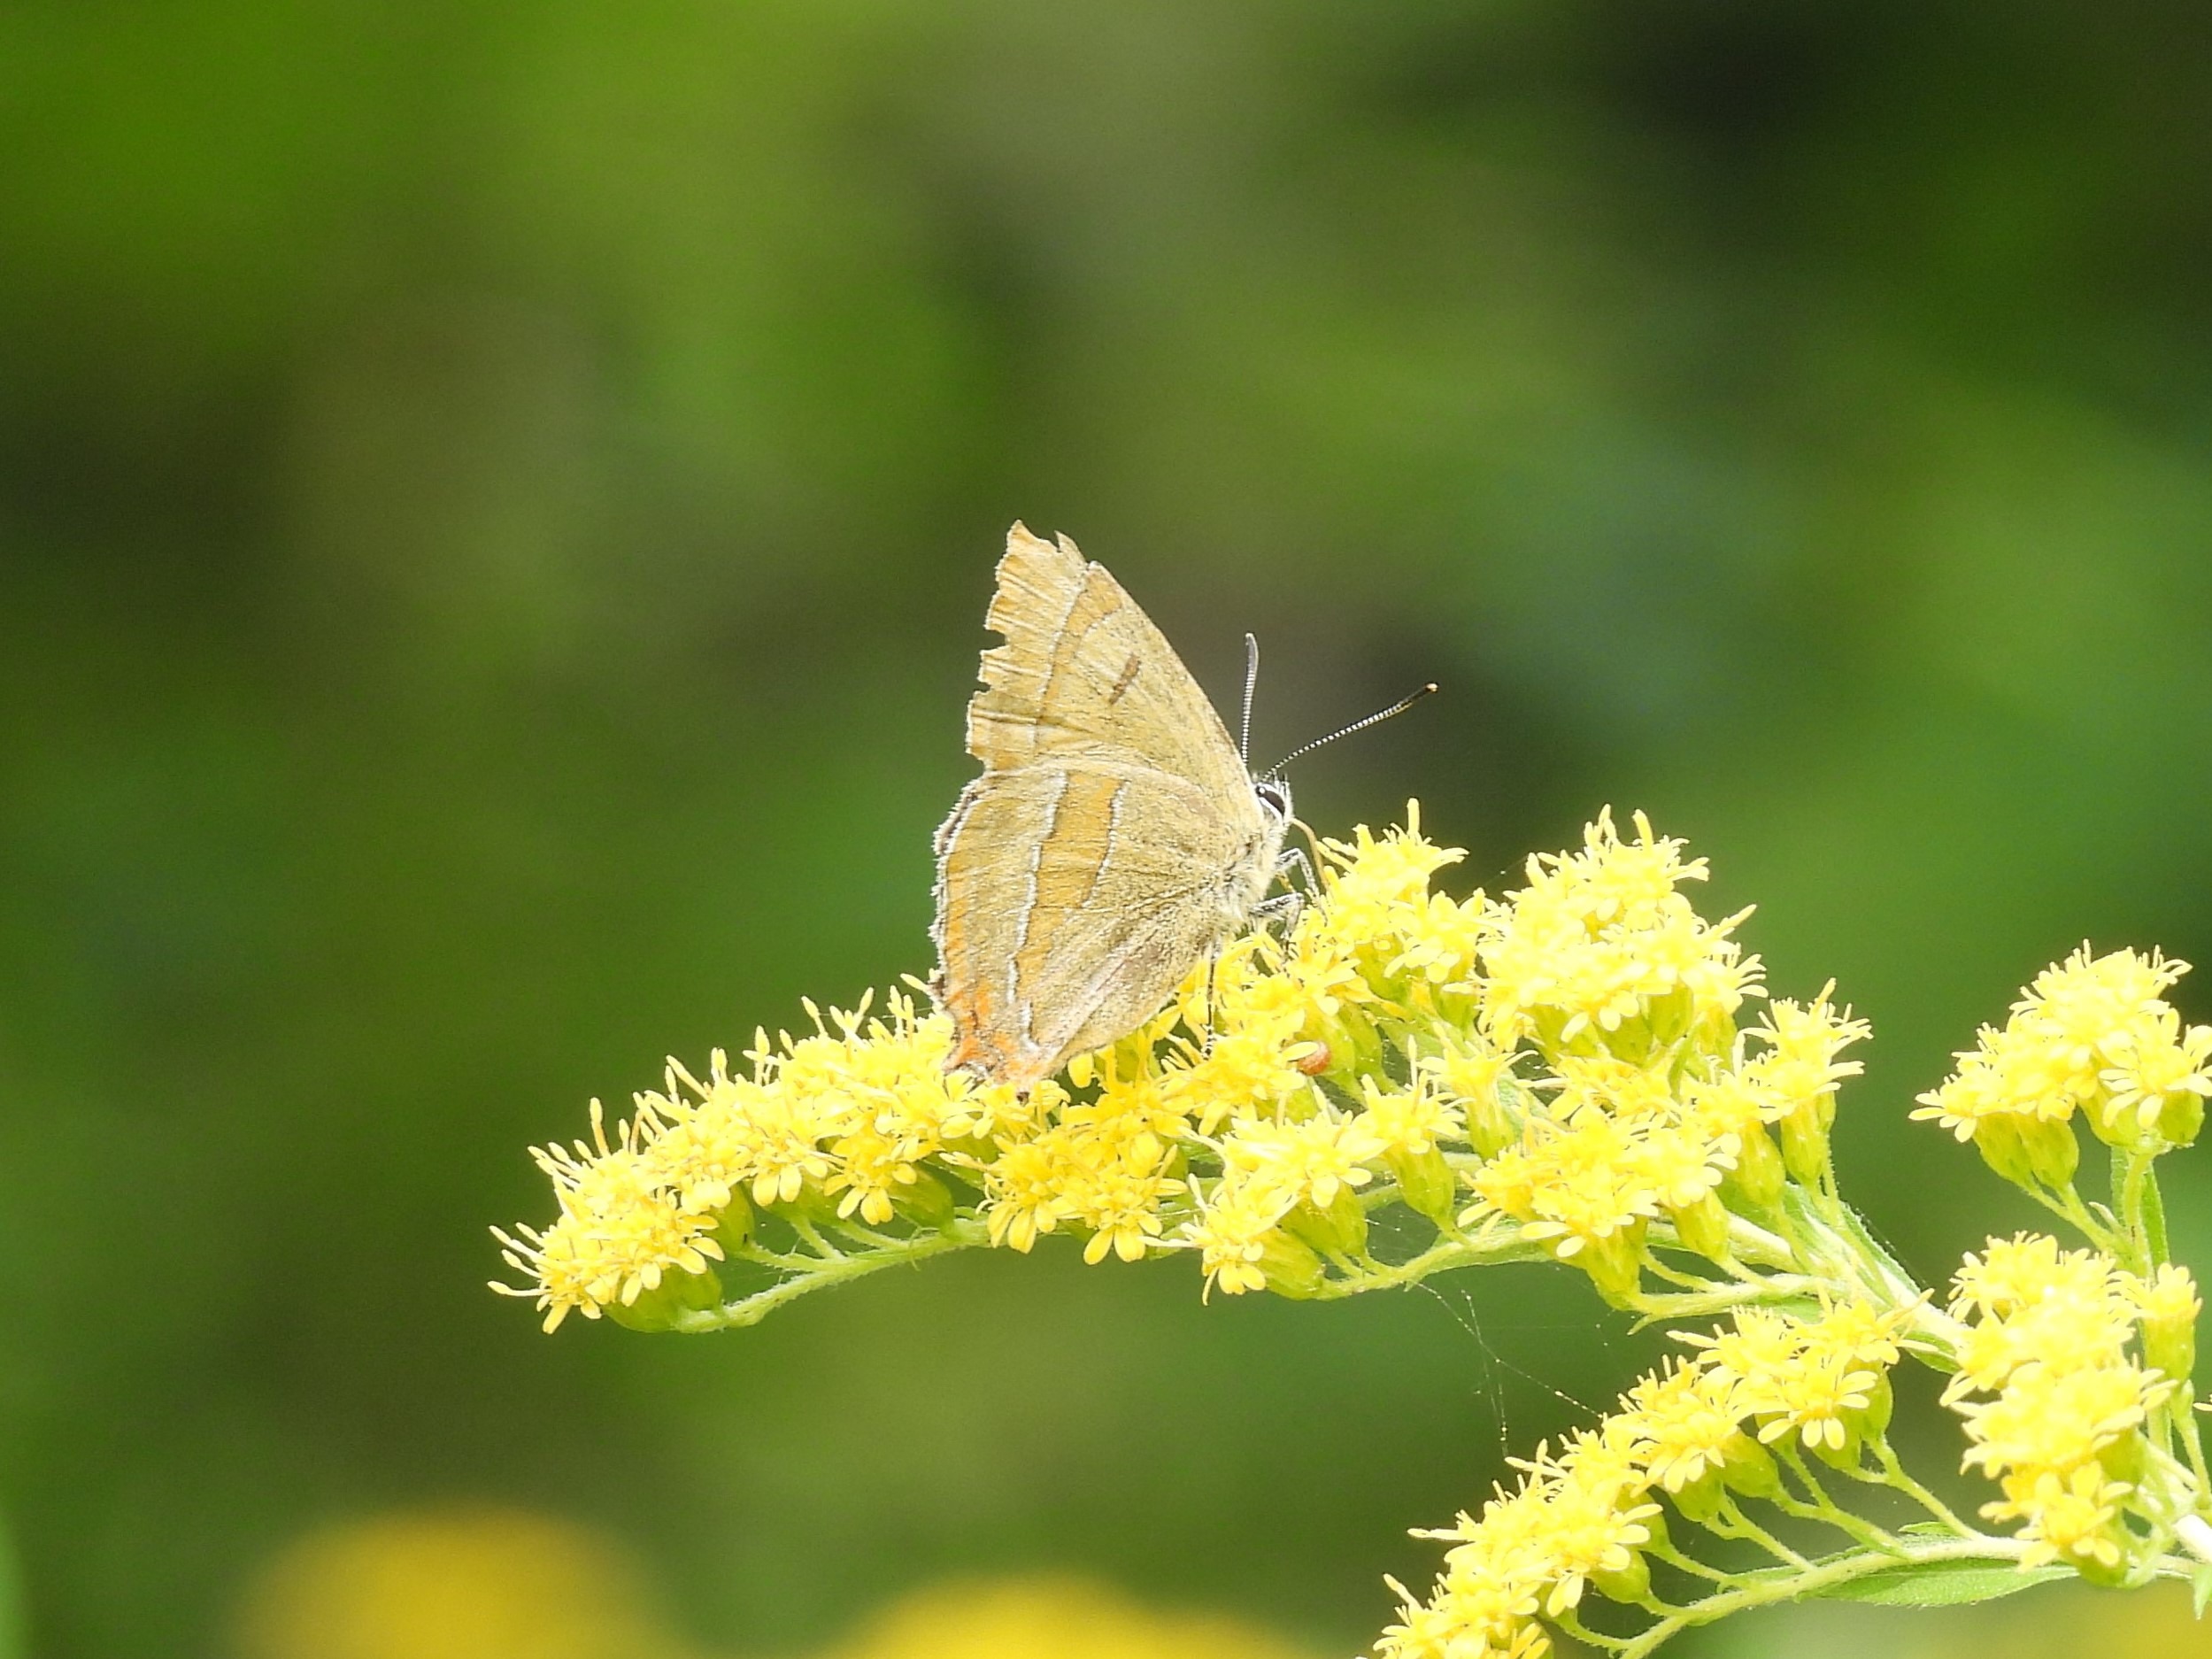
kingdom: Animalia
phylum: Arthropoda
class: Insecta
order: Lepidoptera
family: Lycaenidae
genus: Thecla
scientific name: Thecla betulae
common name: Guldhale
